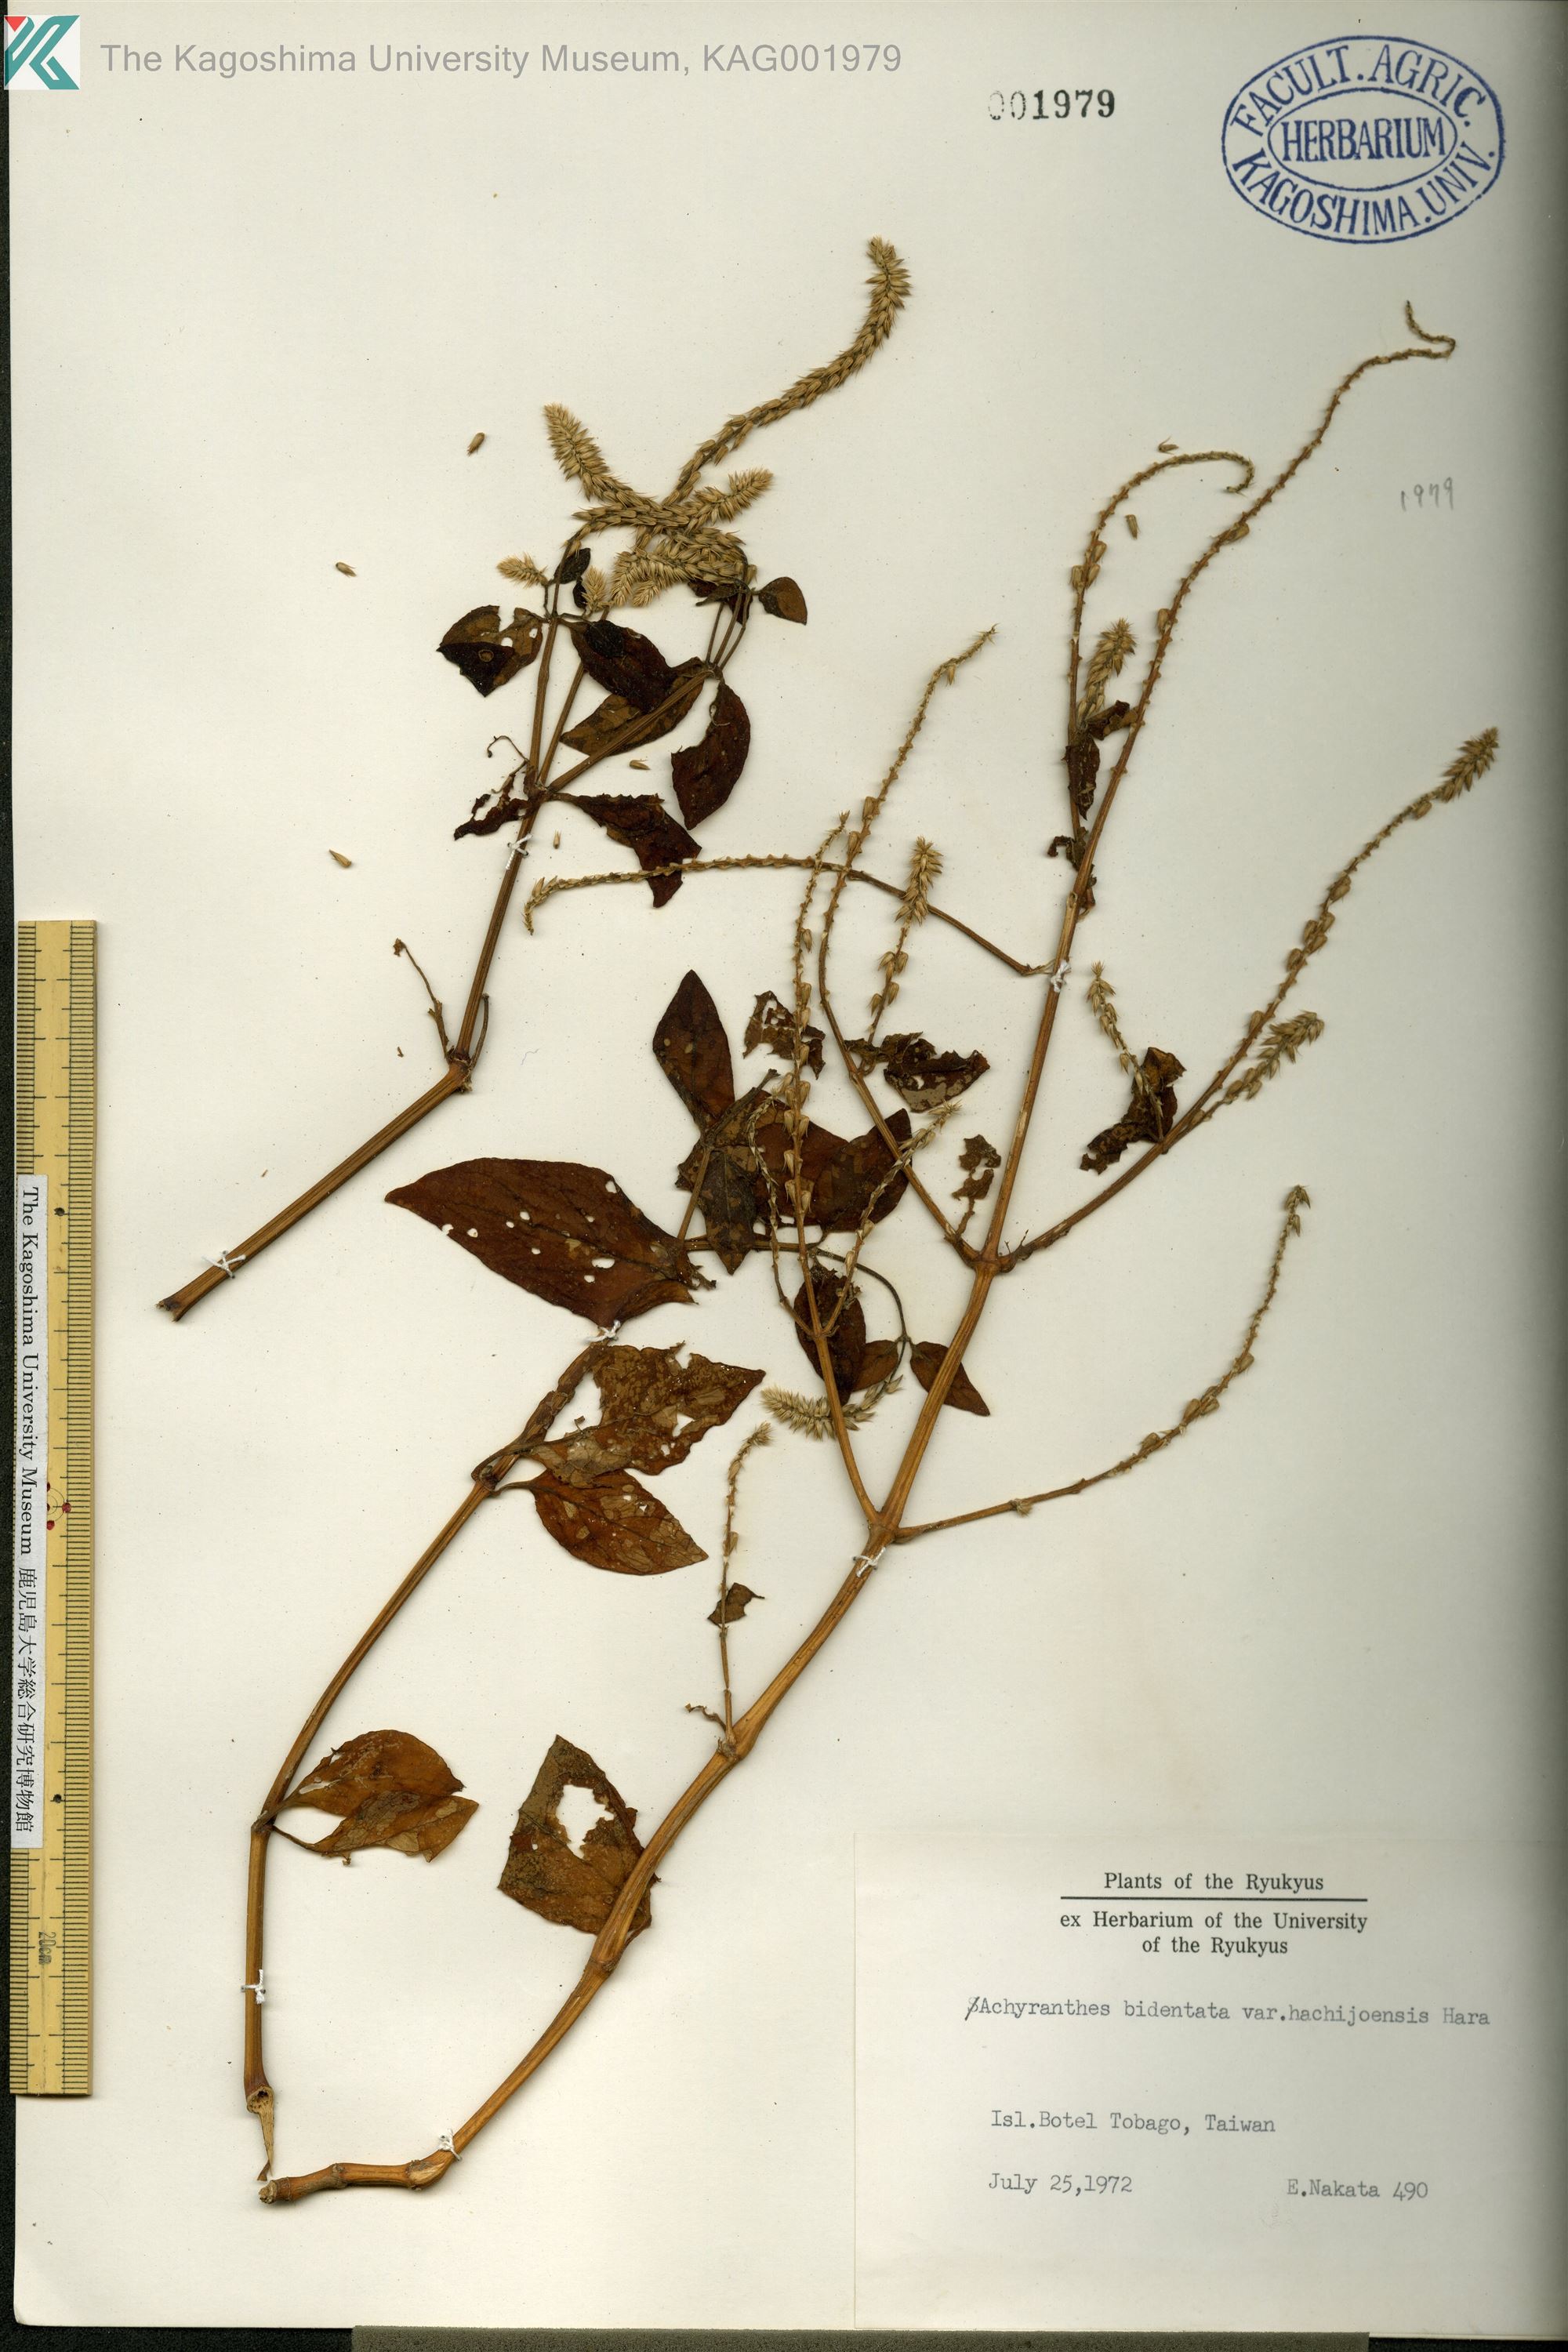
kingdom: Plantae
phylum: Tracheophyta
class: Magnoliopsida
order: Caryophyllales
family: Amaranthaceae
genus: Achyranthes
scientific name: Achyranthes bidentata
